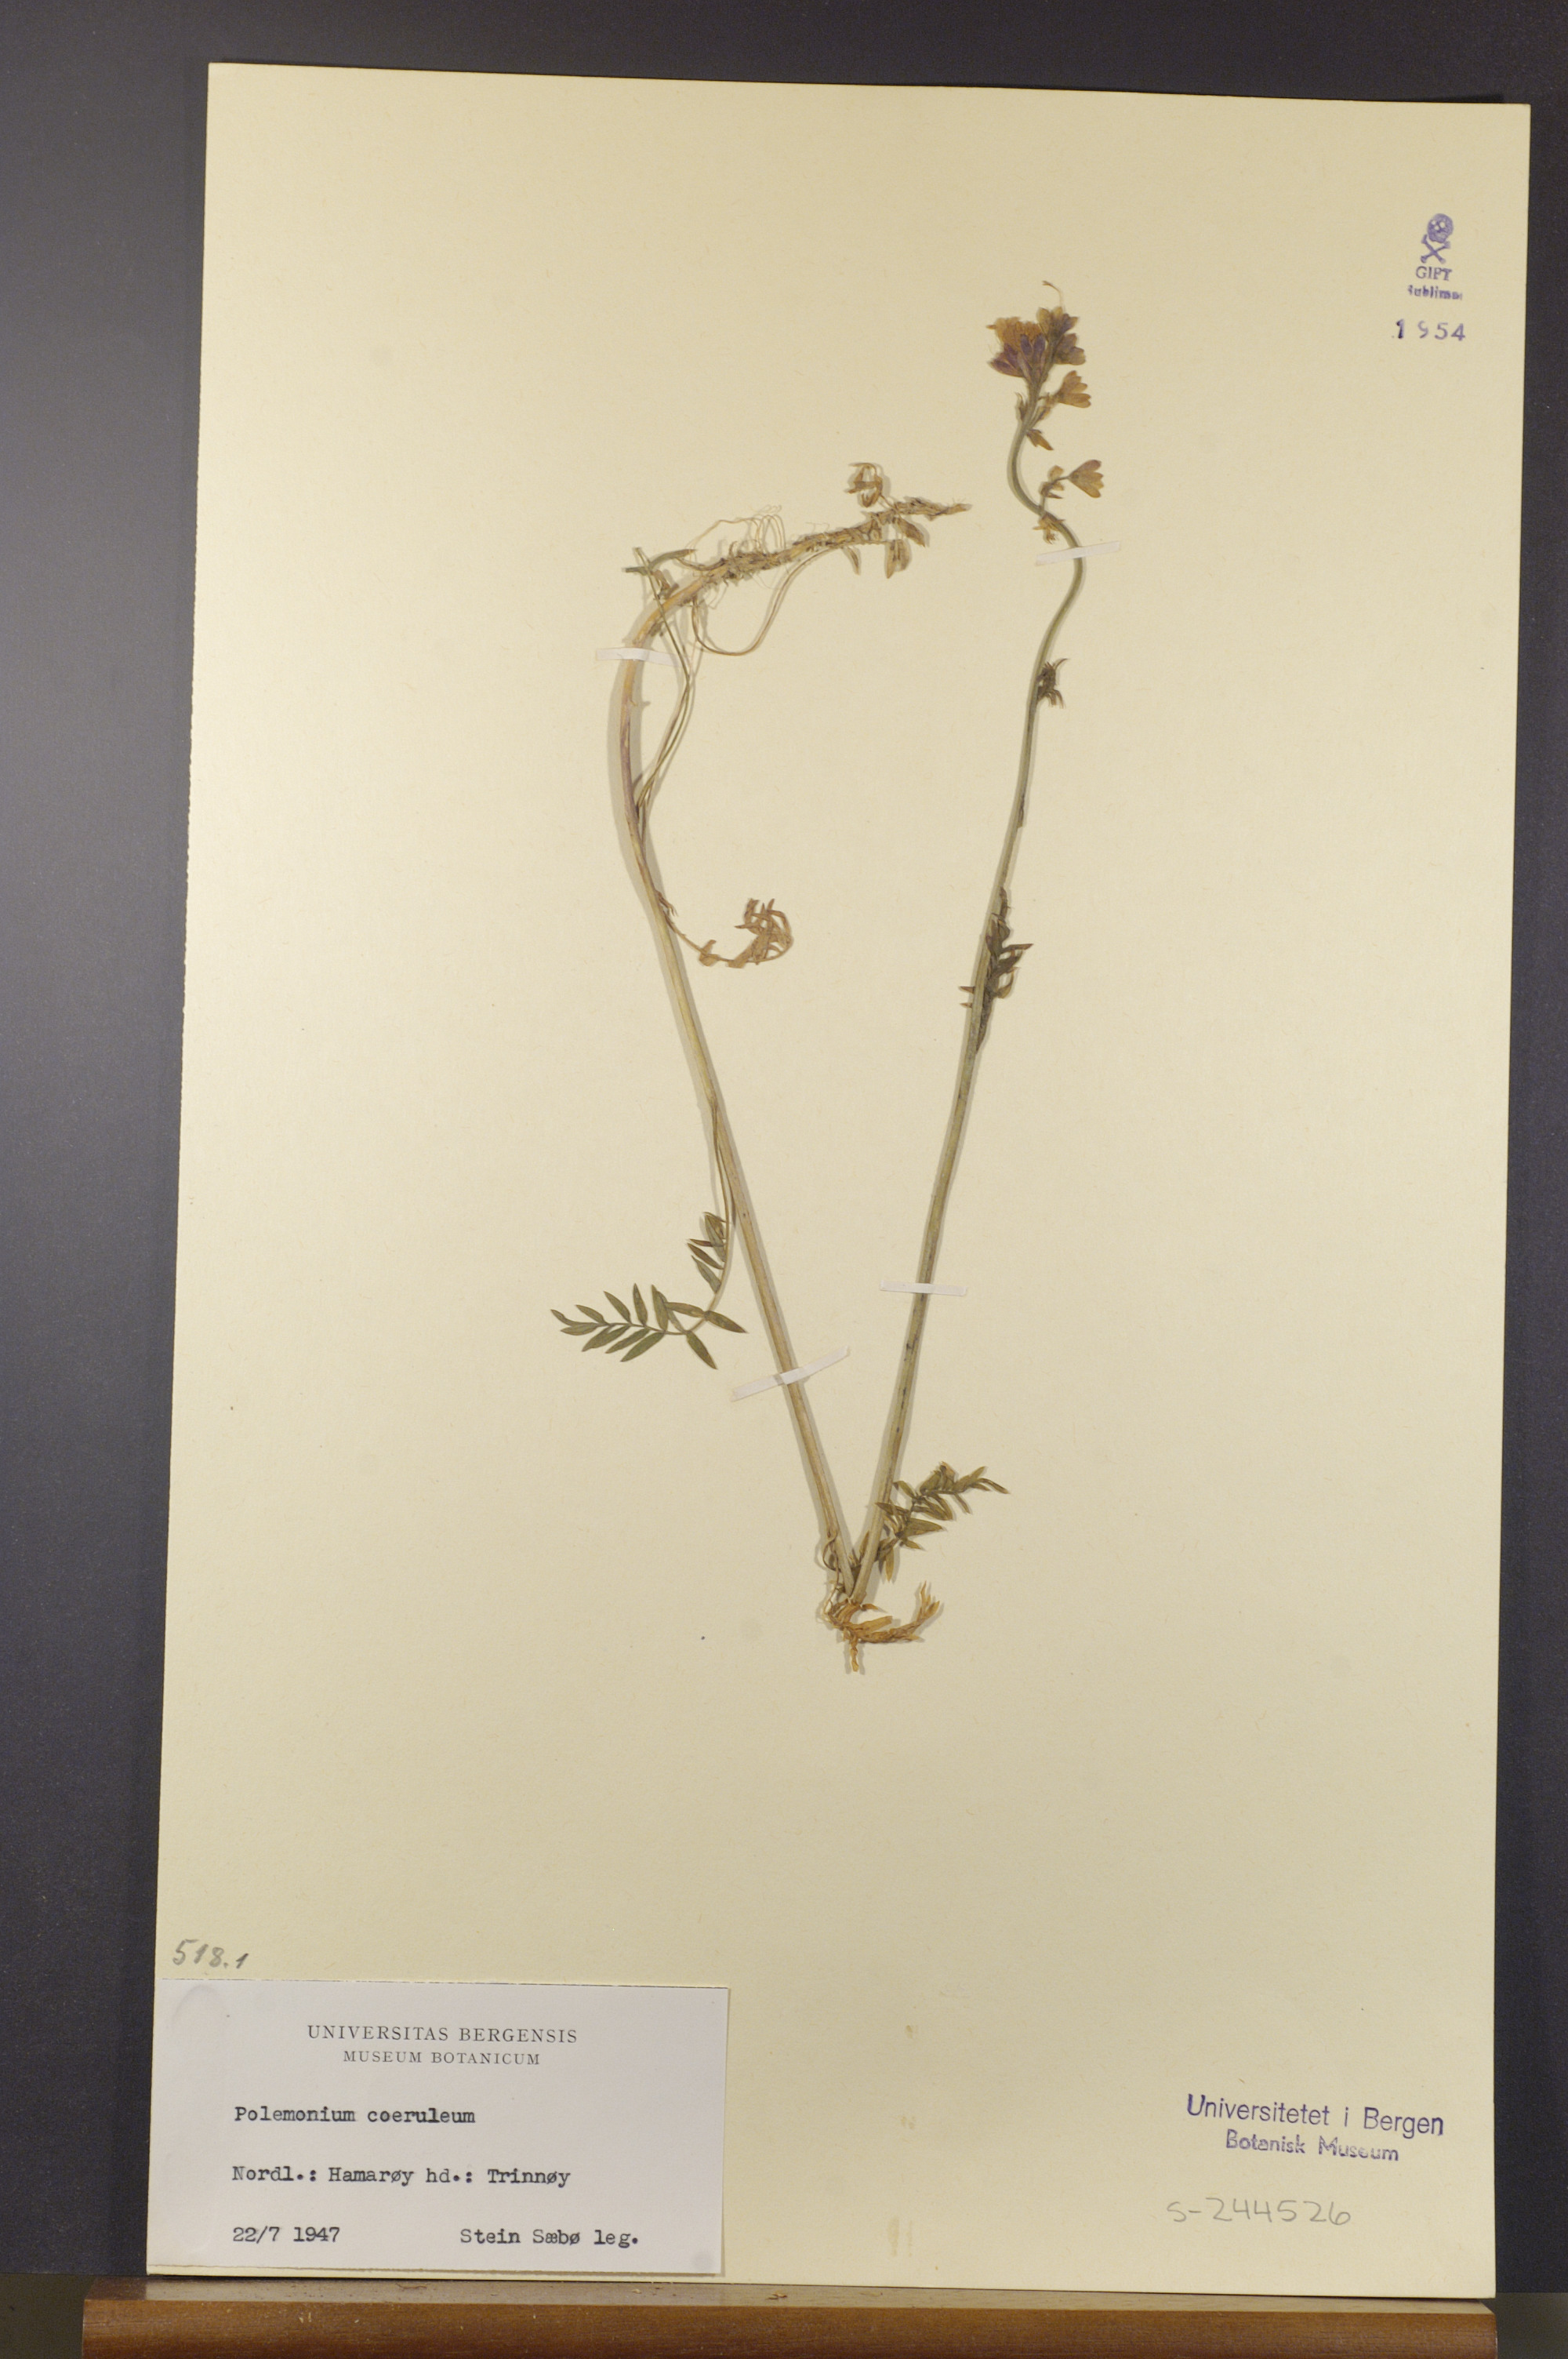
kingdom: Plantae
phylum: Tracheophyta
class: Magnoliopsida
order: Ericales
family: Polemoniaceae
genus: Polemonium
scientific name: Polemonium caeruleum
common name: Jacob's-ladder
